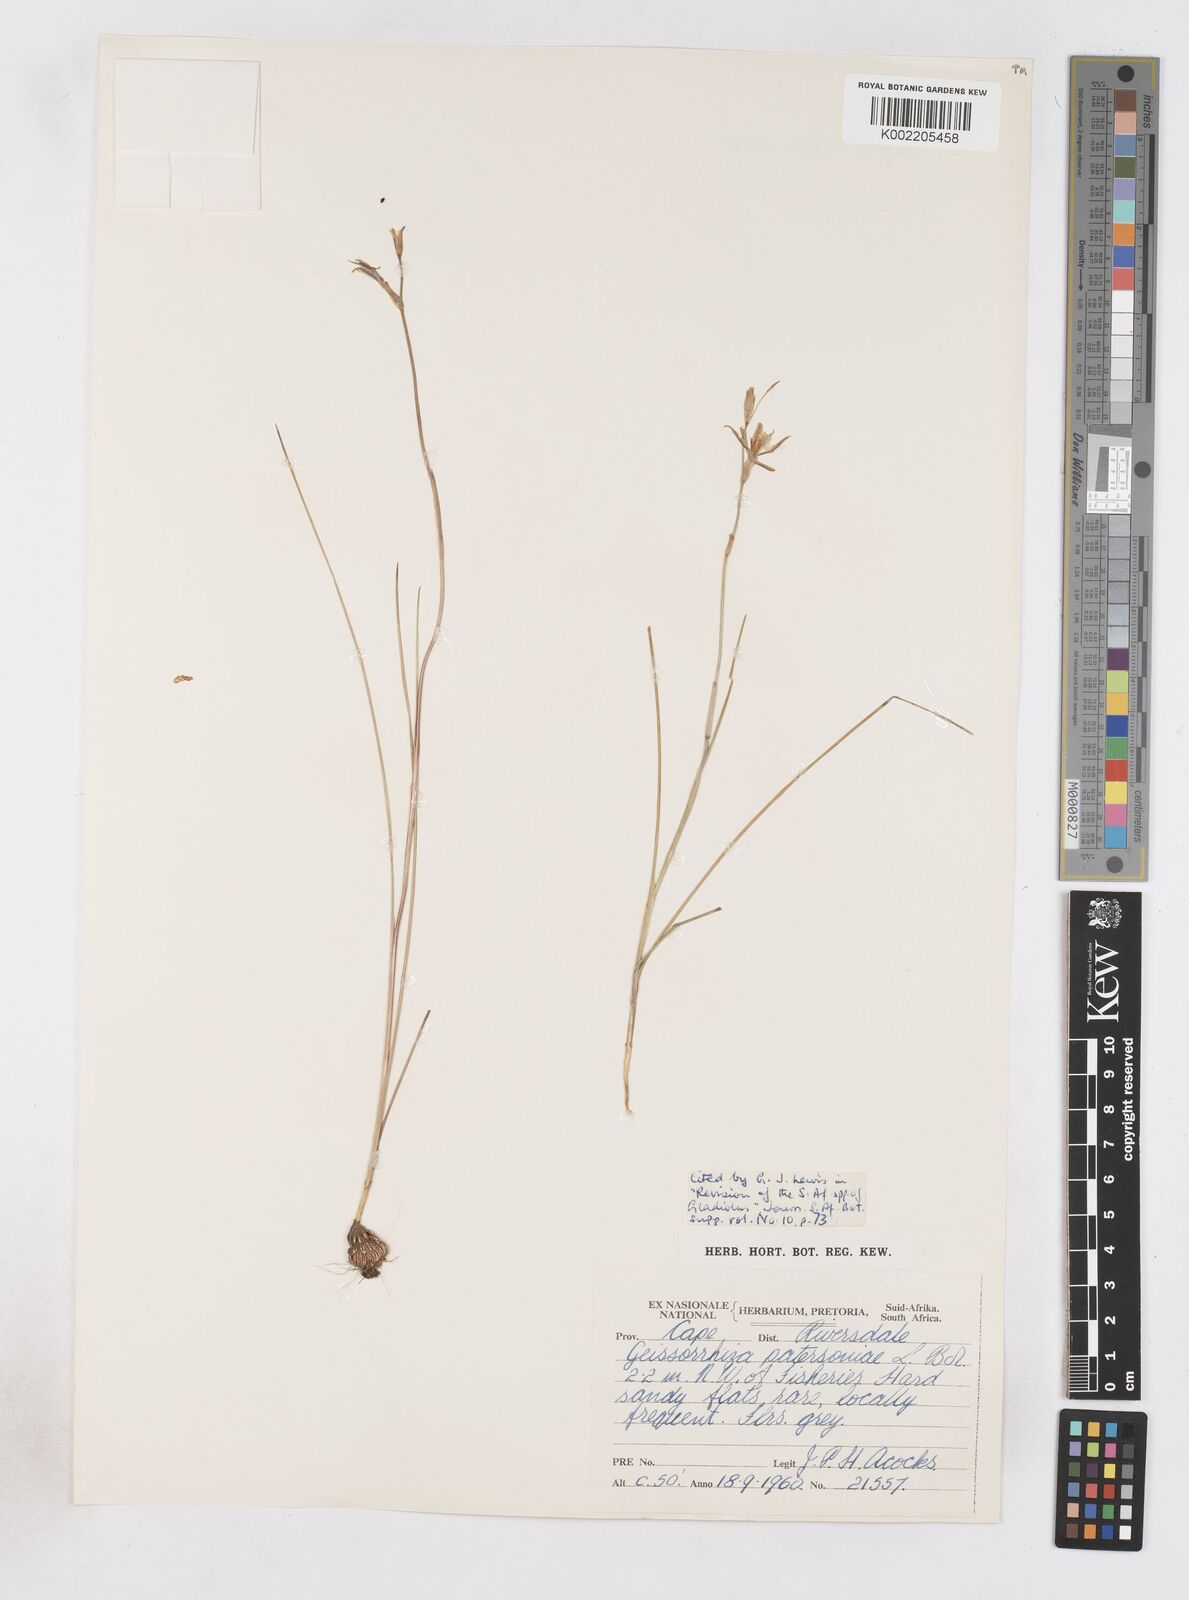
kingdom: Plantae
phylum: Tracheophyta
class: Liliopsida
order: Asparagales
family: Iridaceae
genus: Gladiolus
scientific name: Gladiolus stellatus
